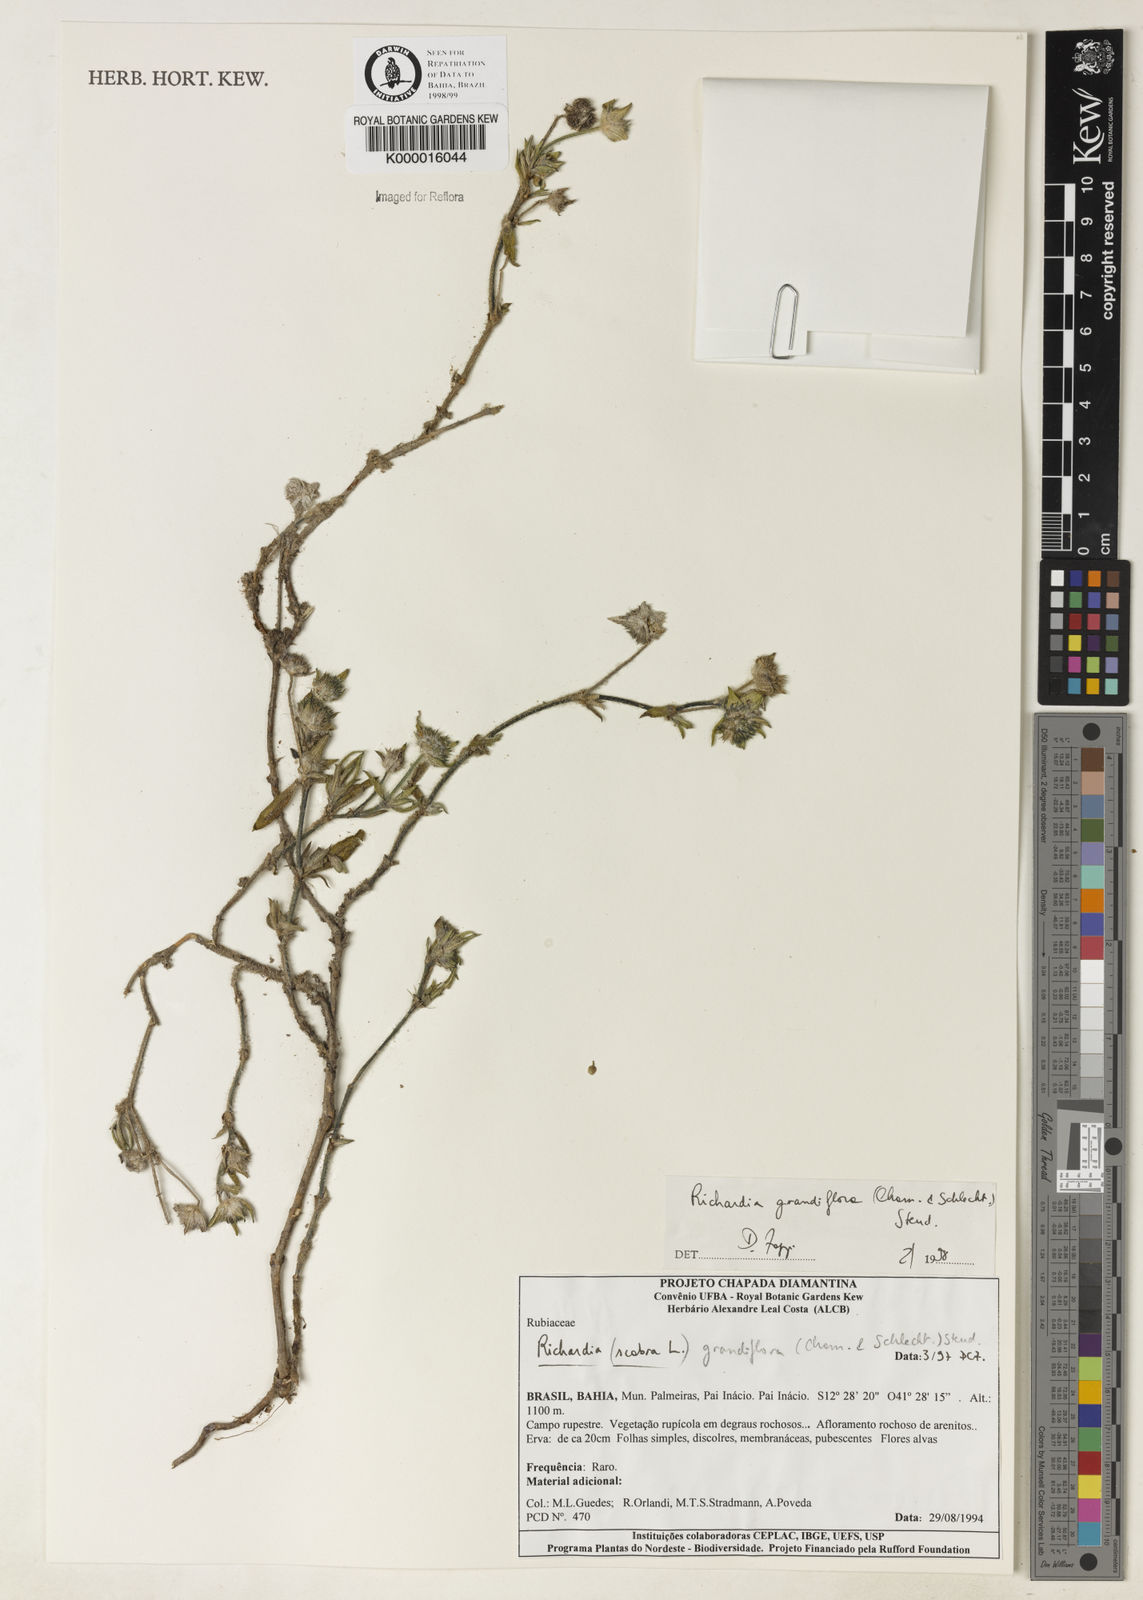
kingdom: Plantae
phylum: Tracheophyta
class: Magnoliopsida
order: Gentianales
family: Rubiaceae
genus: Richardia
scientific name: Richardia grandiflora
